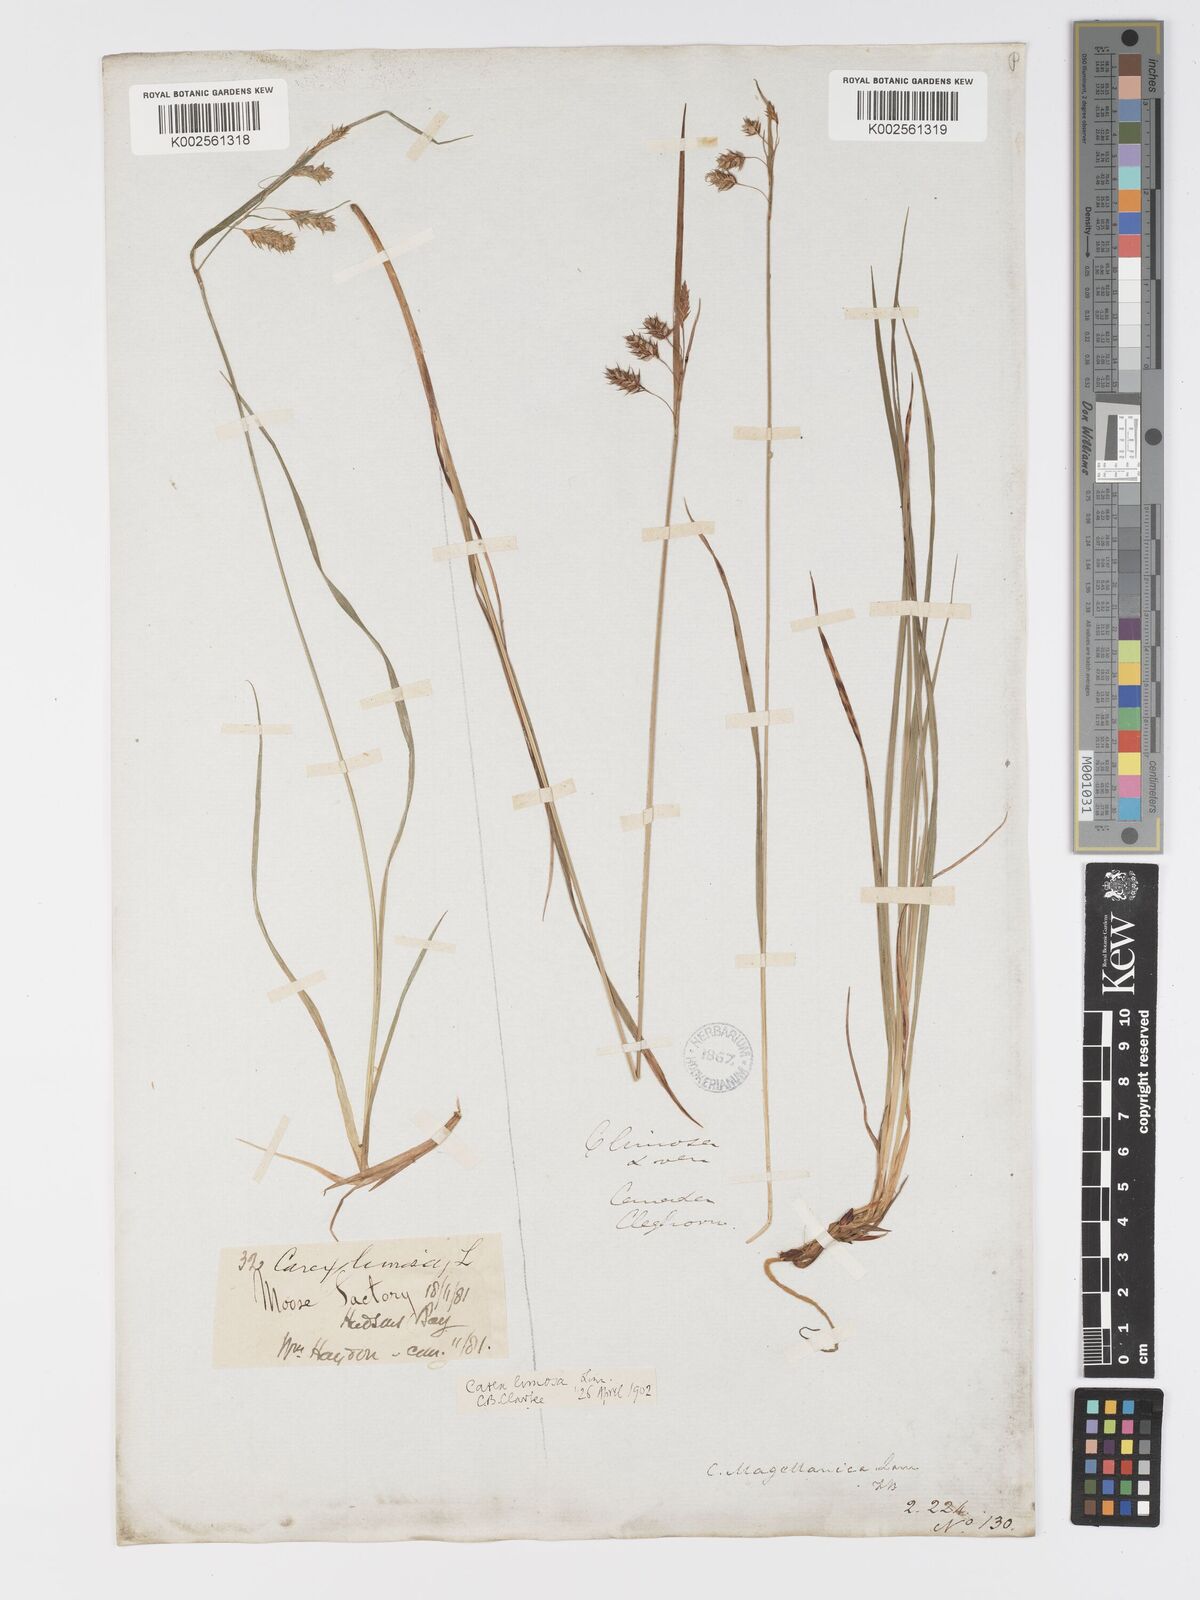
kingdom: Plantae
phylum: Tracheophyta
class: Liliopsida
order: Poales
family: Cyperaceae
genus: Carex
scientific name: Carex magellanica
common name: Bog sedge
